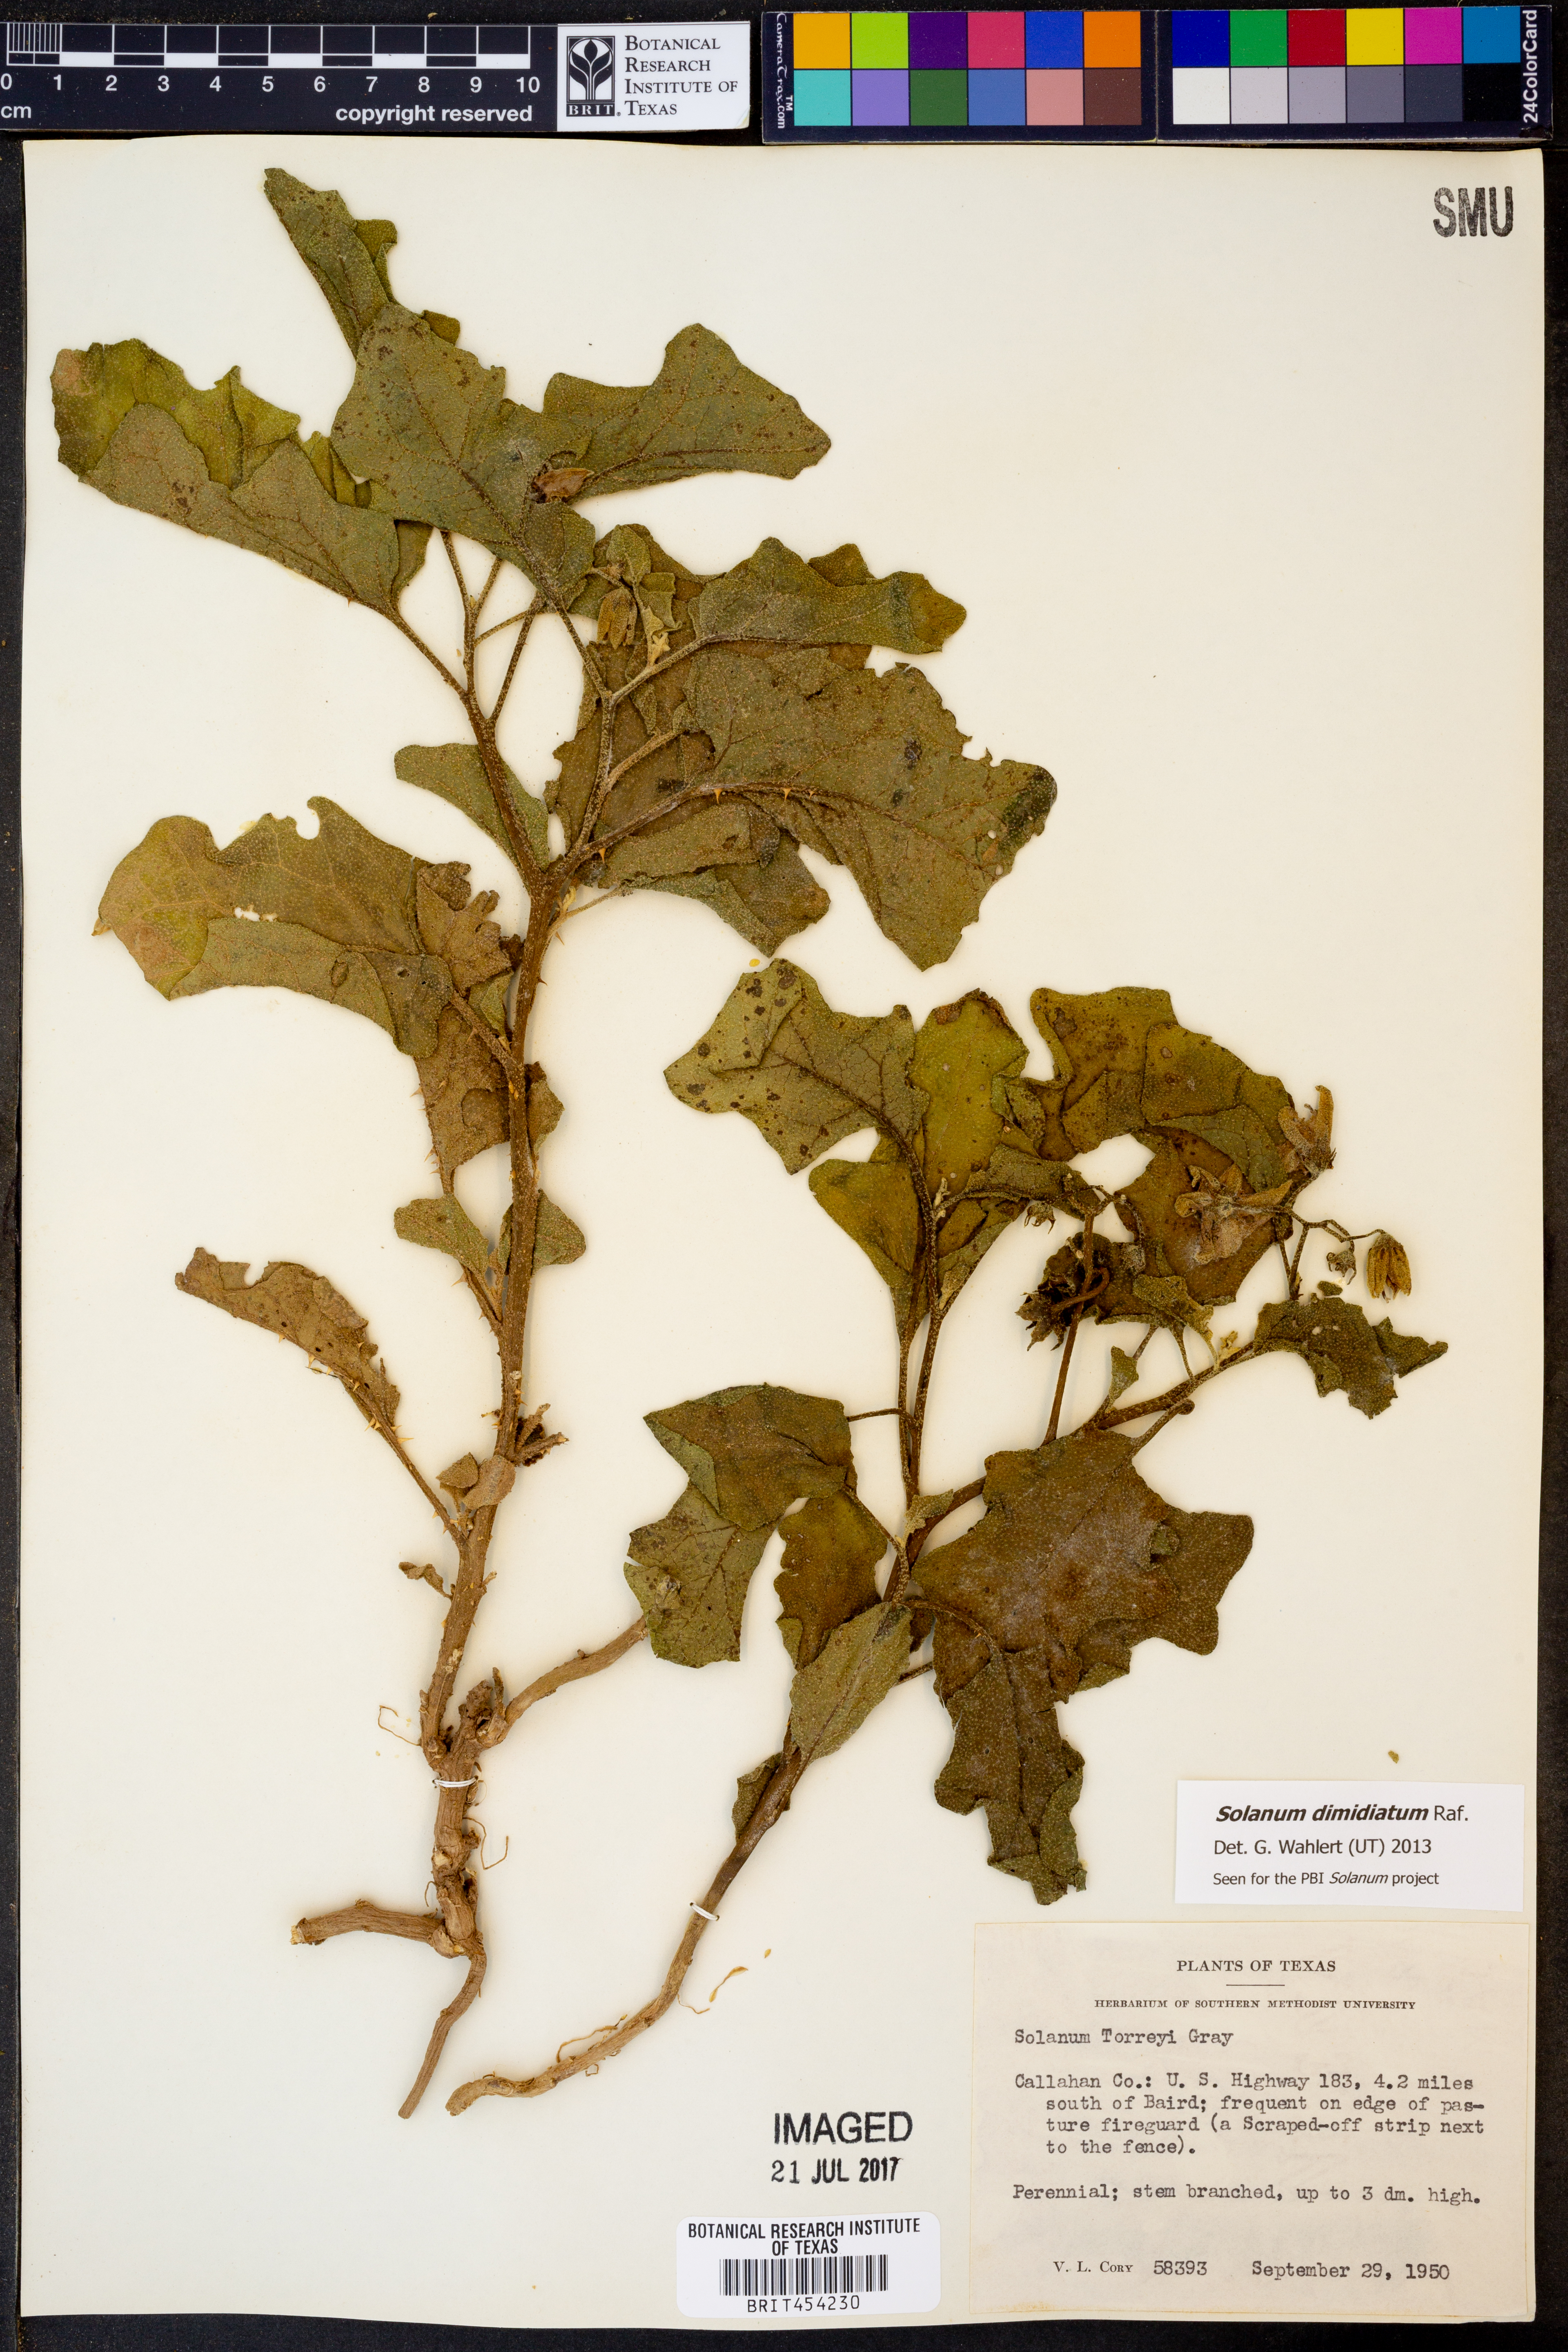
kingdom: Plantae
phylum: Tracheophyta
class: Magnoliopsida
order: Solanales
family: Solanaceae
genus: Solanum
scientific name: Solanum dimidiatum
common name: Carolina horse-nettle
